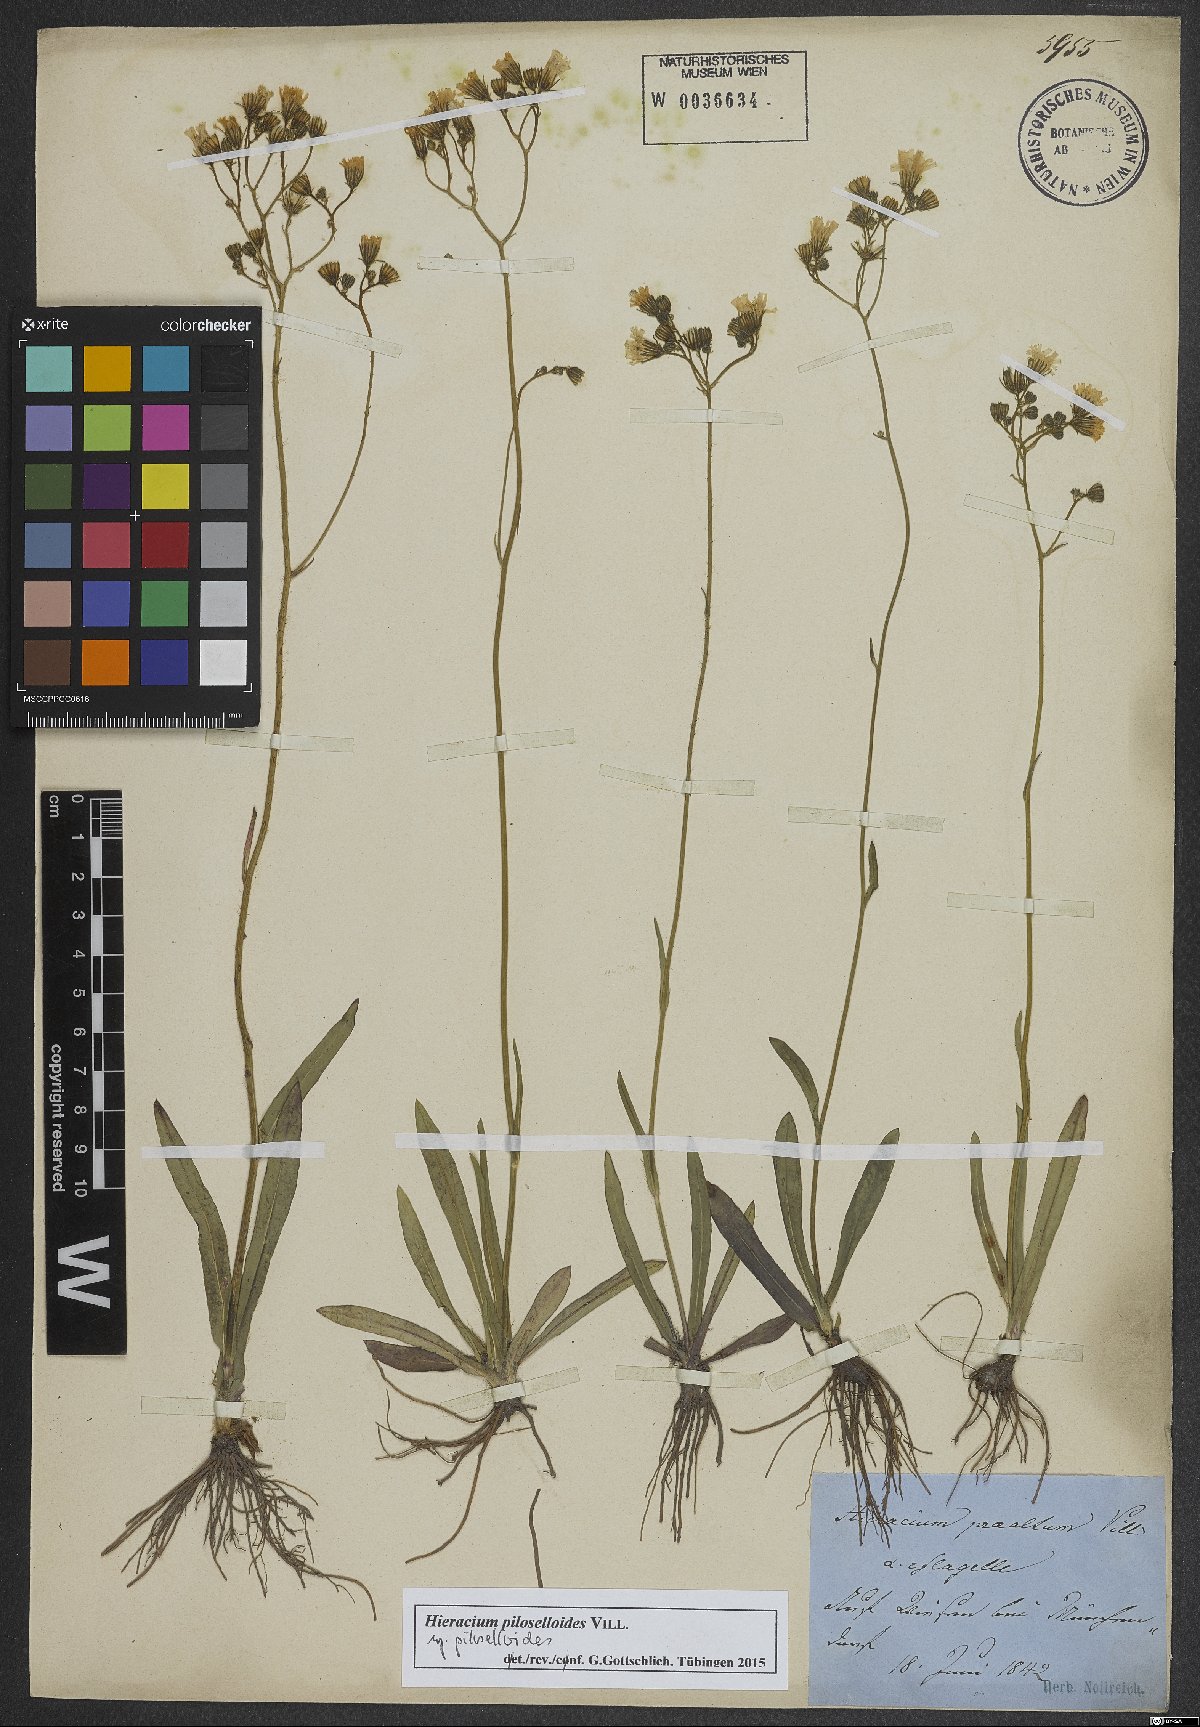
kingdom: Plantae
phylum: Tracheophyta
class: Magnoliopsida
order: Asterales
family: Asteraceae
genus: Pilosella
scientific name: Pilosella piloselloides
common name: Glaucous king-devil
